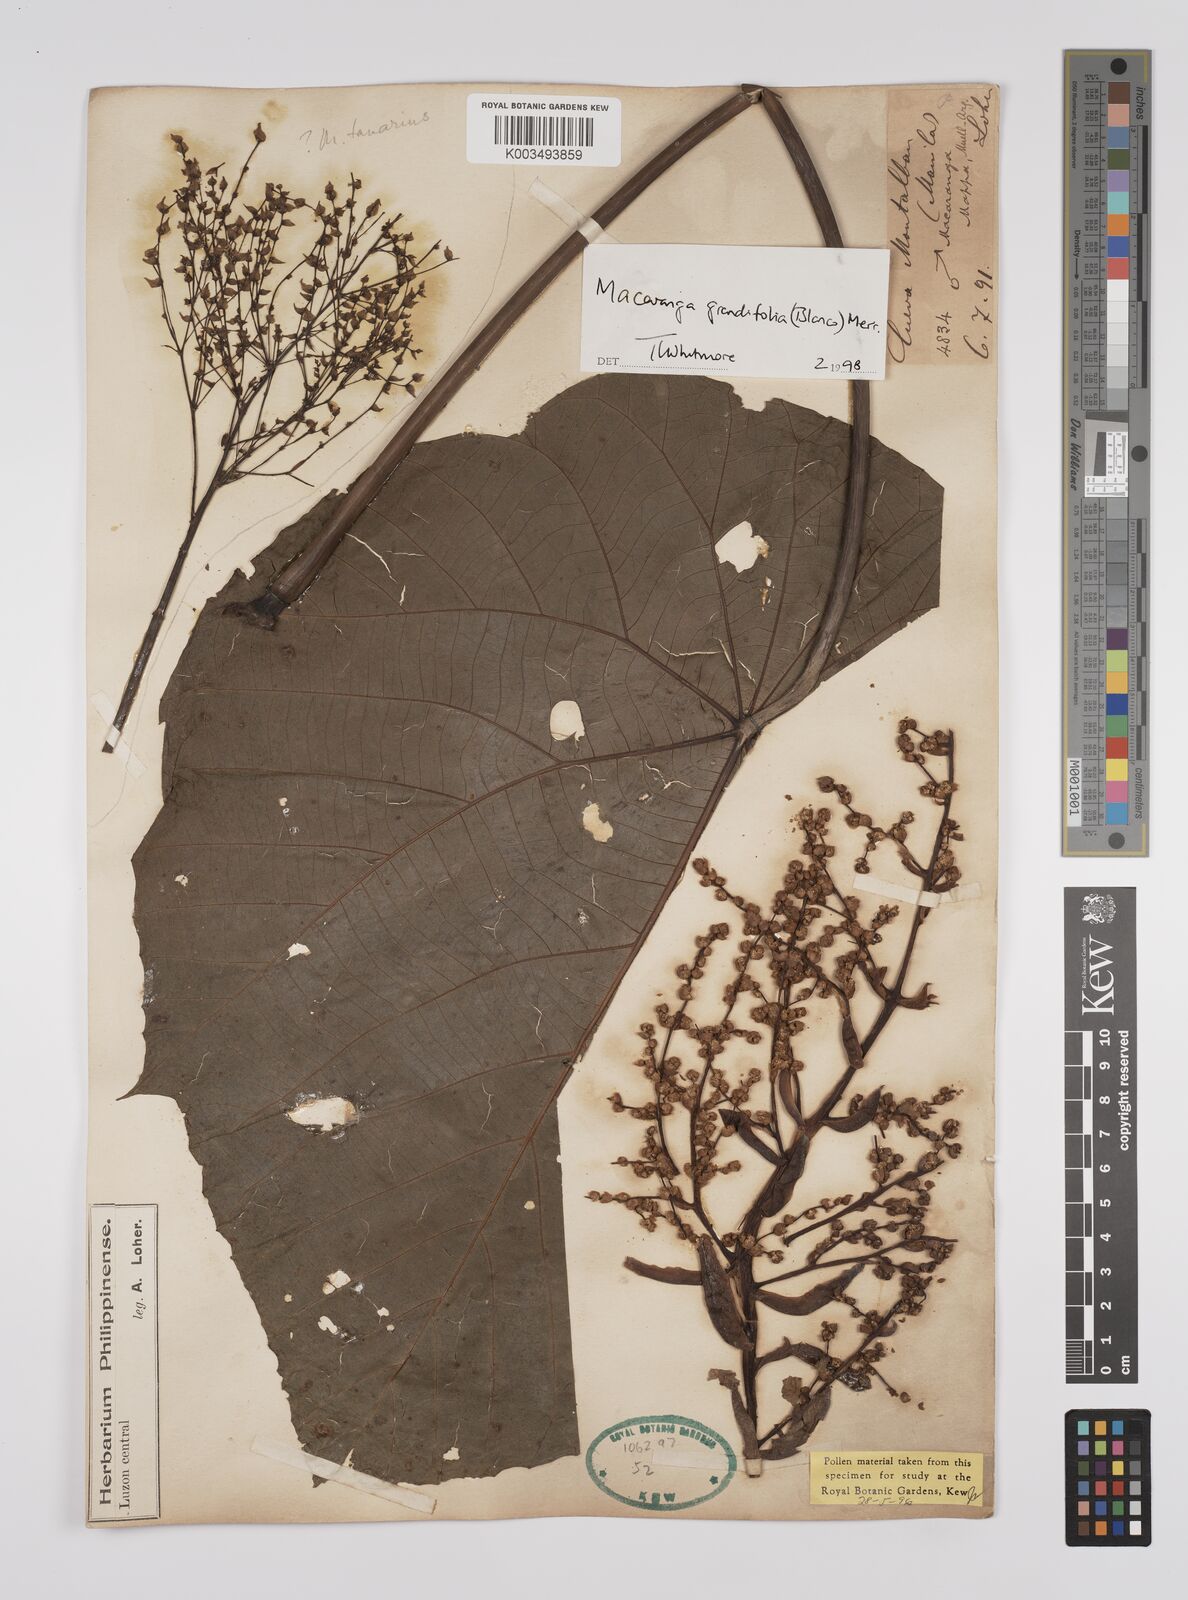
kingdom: Plantae
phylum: Tracheophyta
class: Magnoliopsida
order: Malpighiales
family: Euphorbiaceae
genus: Macaranga
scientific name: Macaranga grandifolia
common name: Coraltree
